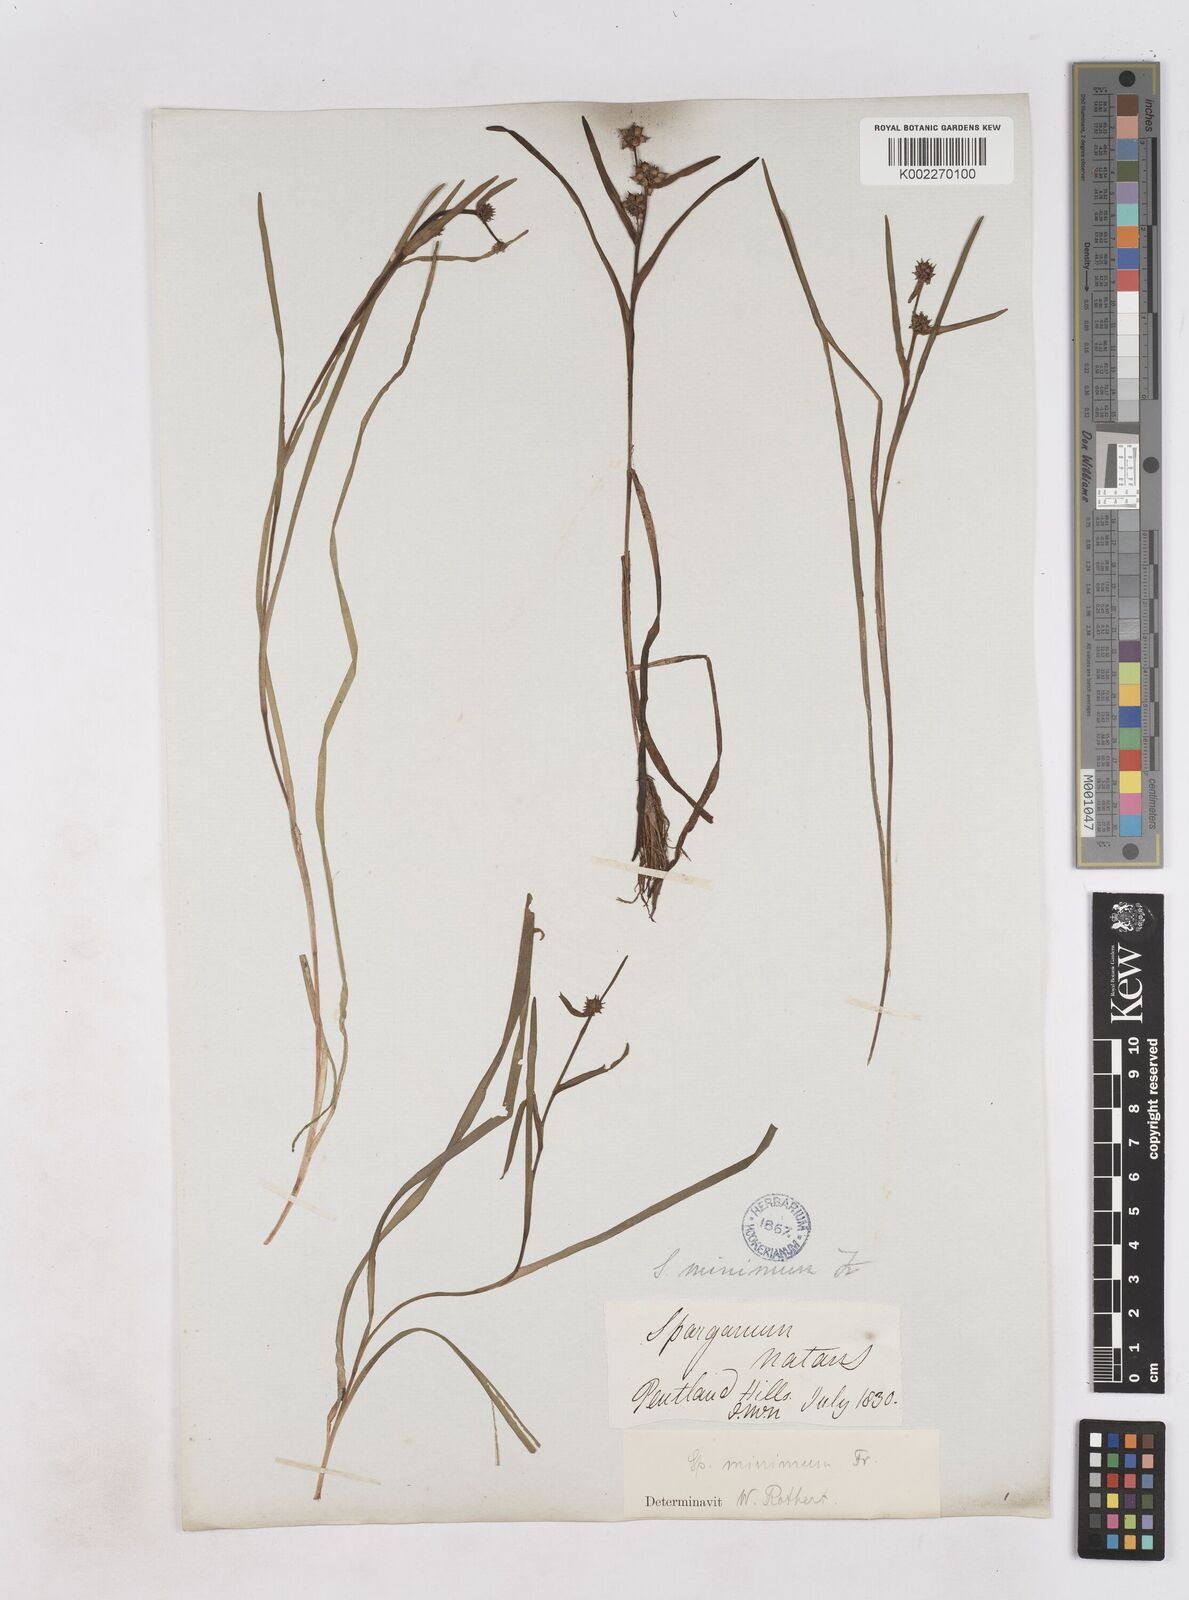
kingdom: Plantae
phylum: Tracheophyta
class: Liliopsida
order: Poales
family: Typhaceae
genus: Sparganium
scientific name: Sparganium natans
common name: Least bur-reed
